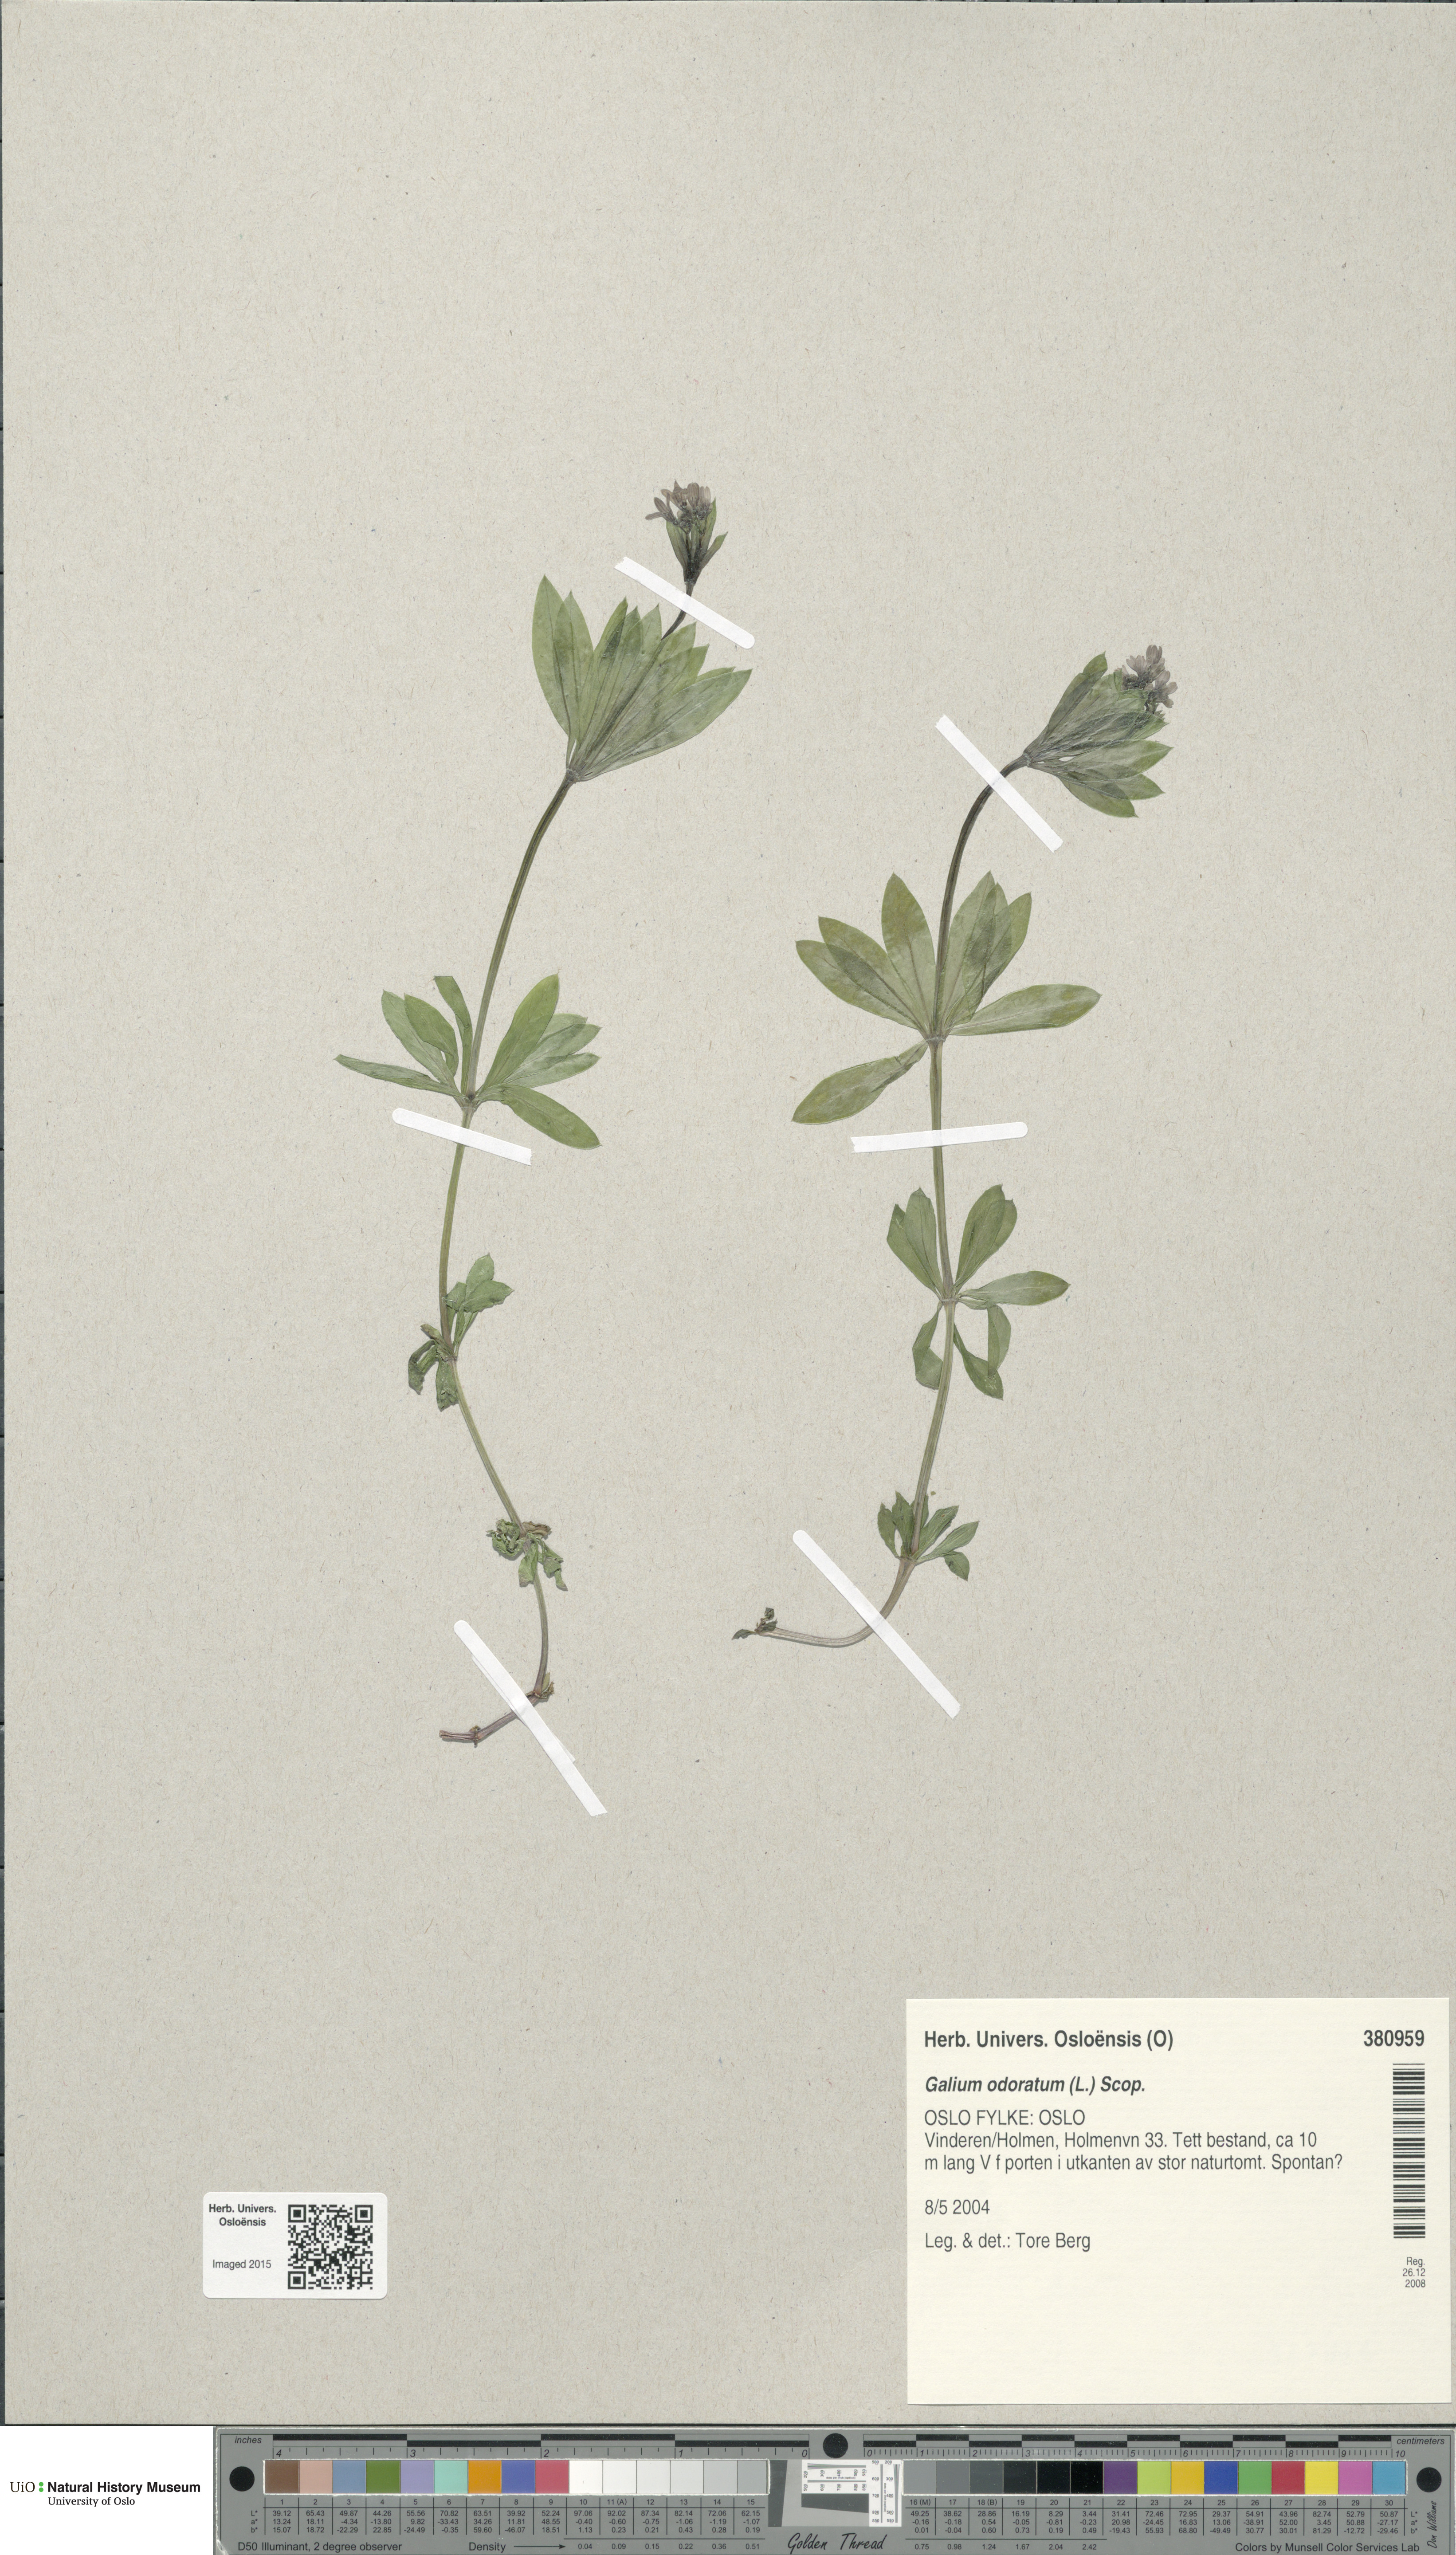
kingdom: Plantae
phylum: Tracheophyta
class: Magnoliopsida
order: Gentianales
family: Rubiaceae
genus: Galium
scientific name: Galium odoratum
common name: Sweet woodruff
